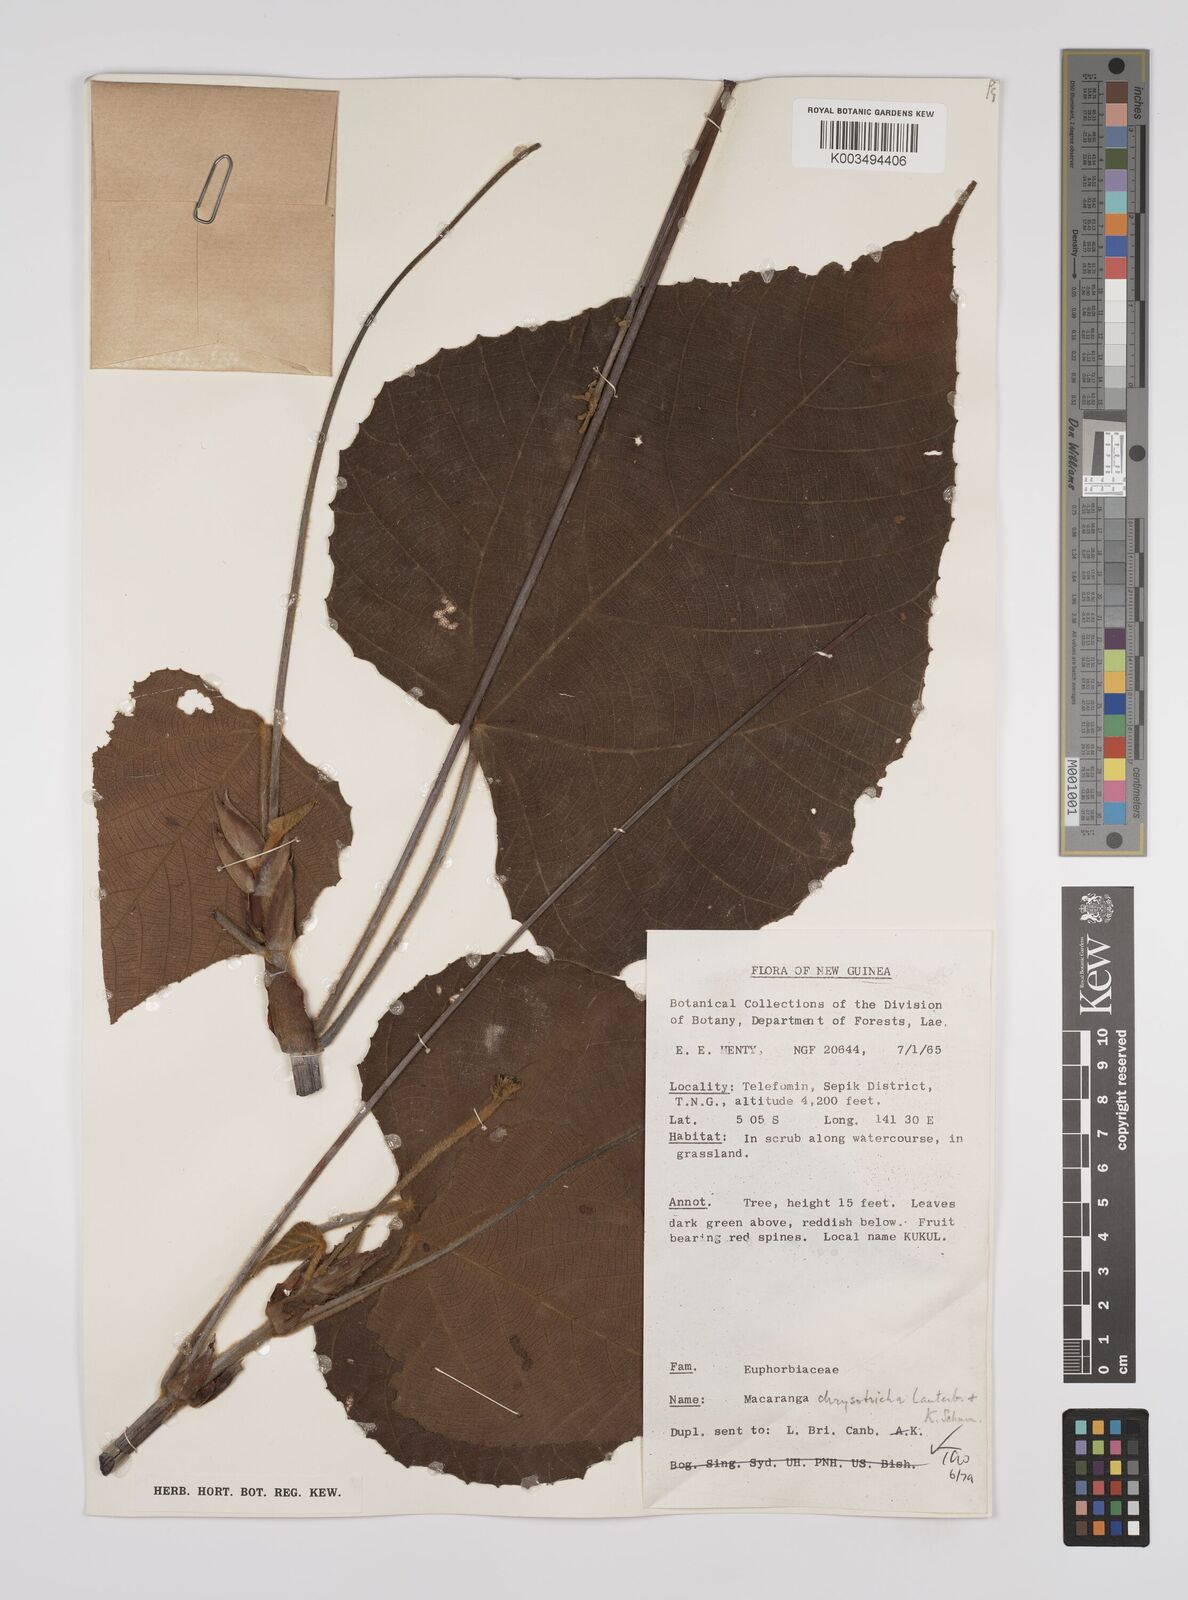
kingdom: Plantae
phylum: Tracheophyta
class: Magnoliopsida
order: Malpighiales
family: Euphorbiaceae
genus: Macaranga
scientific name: Macaranga chrysotricha
